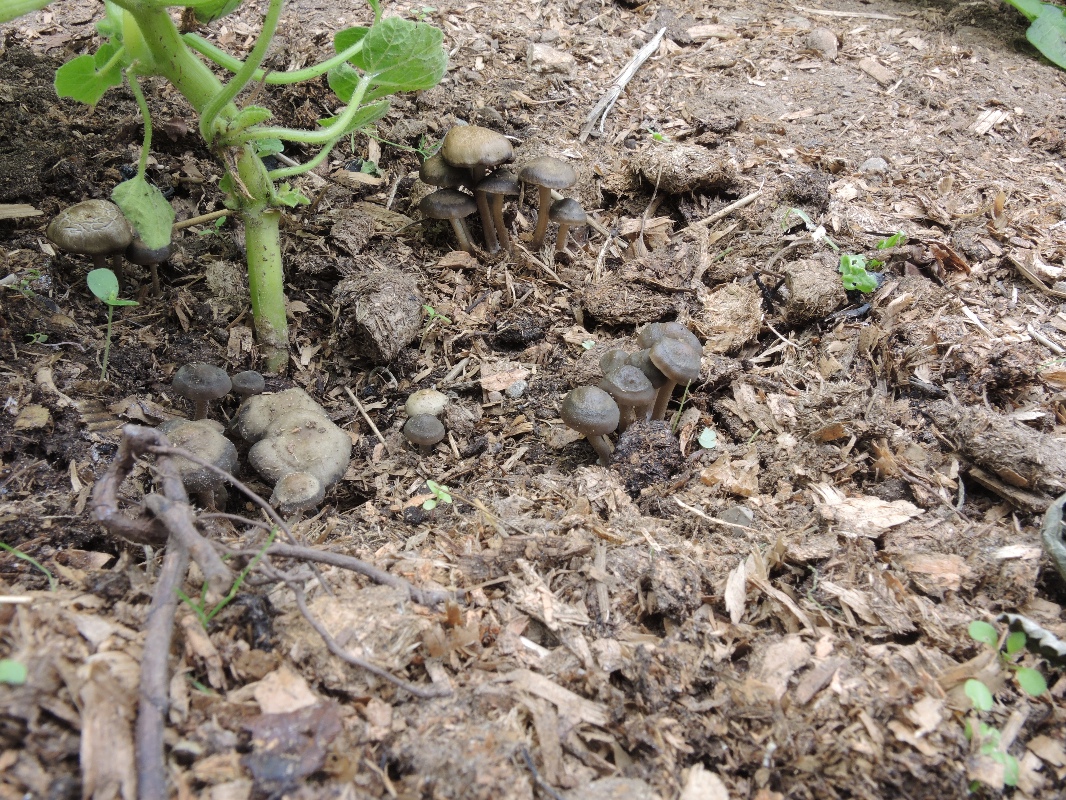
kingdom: Fungi
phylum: Basidiomycota
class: Agaricomycetes
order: Agaricales
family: Bolbitiaceae
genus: Panaeolus
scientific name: Panaeolus reticulatus
